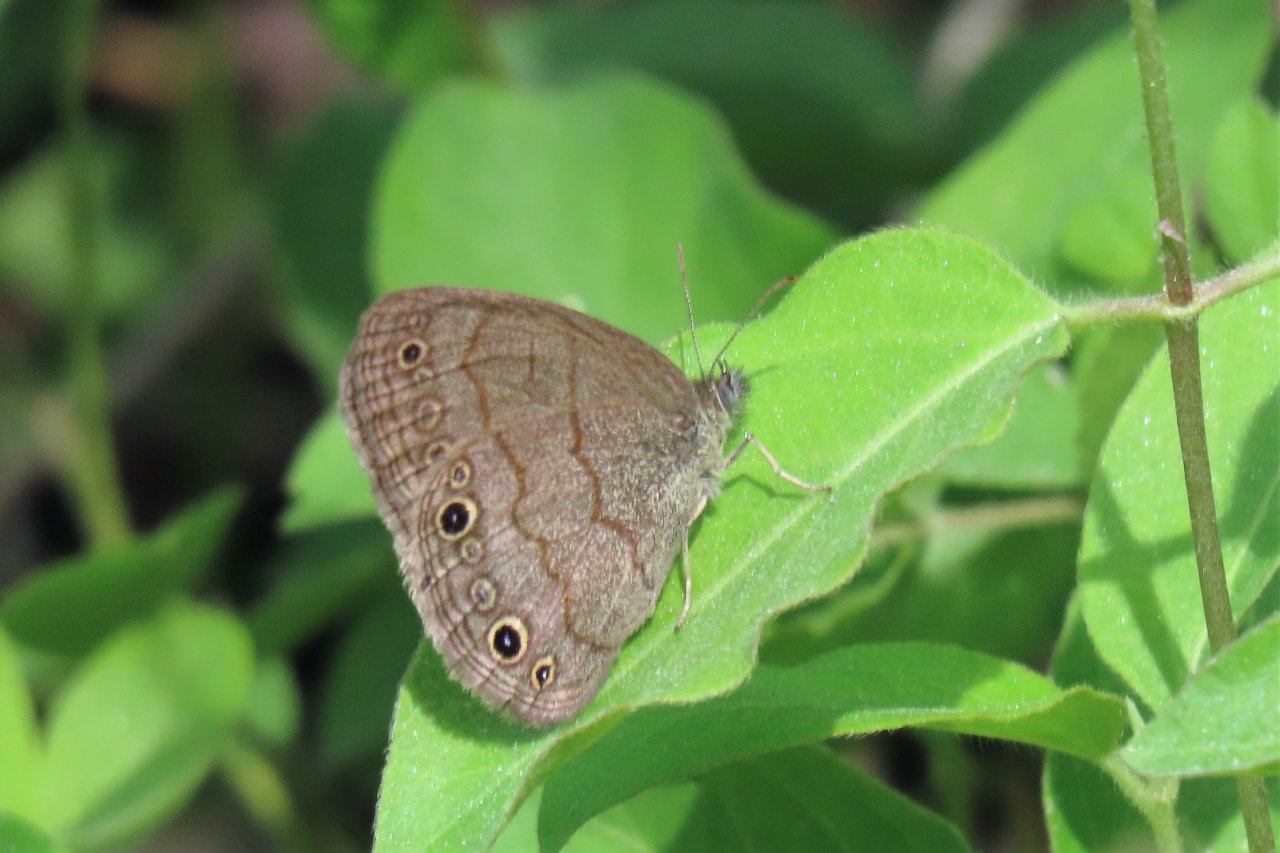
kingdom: Animalia
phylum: Arthropoda
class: Insecta
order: Lepidoptera
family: Nymphalidae
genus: Hermeuptychia
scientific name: Hermeuptychia hermes
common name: Carolina Satyr
